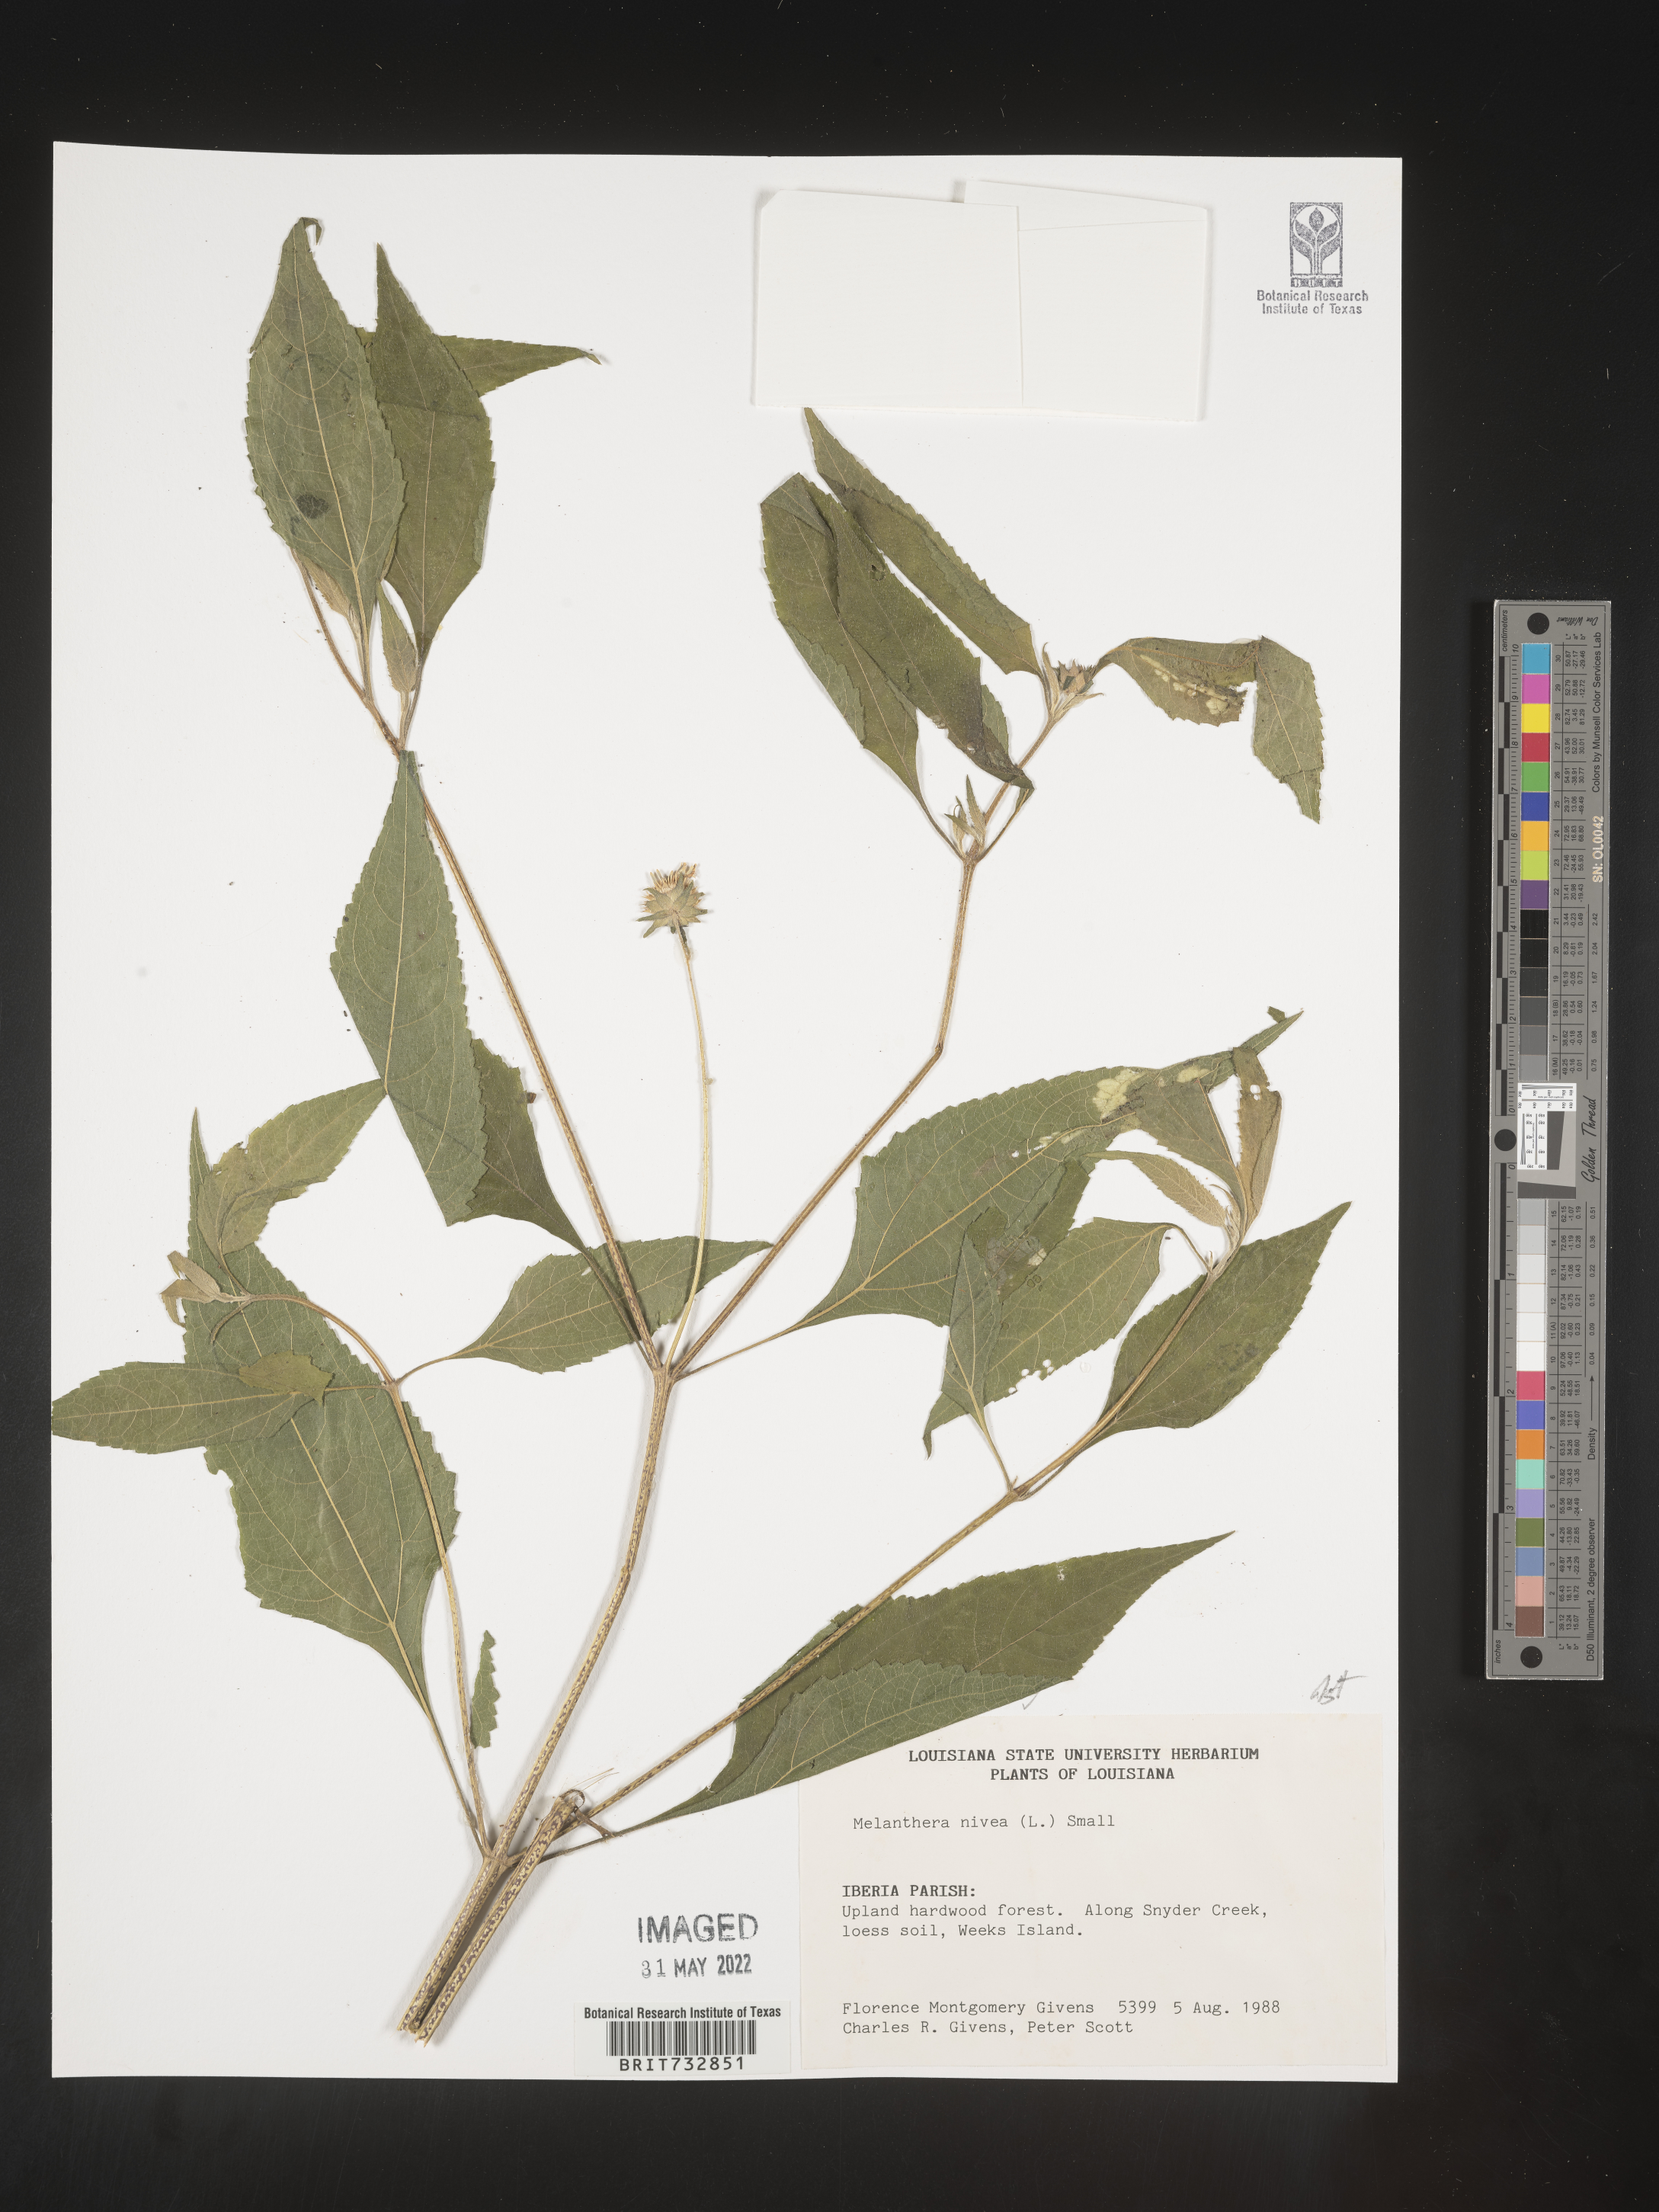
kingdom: Plantae
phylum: Tracheophyta
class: Magnoliopsida
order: Asterales
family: Asteraceae
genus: Melanthera
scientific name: Melanthera nivea
